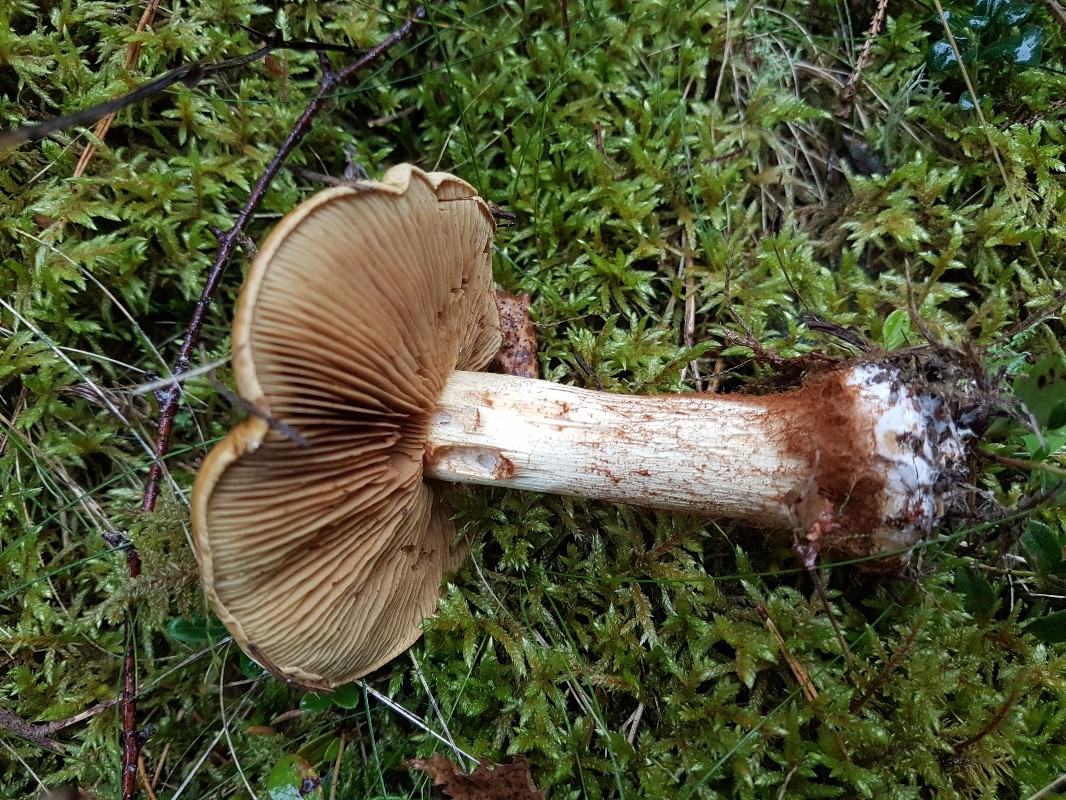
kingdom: Fungi
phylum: Basidiomycota
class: Agaricomycetes
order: Agaricales
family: Cortinariaceae
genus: Calonarius
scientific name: Calonarius sulfurinus
